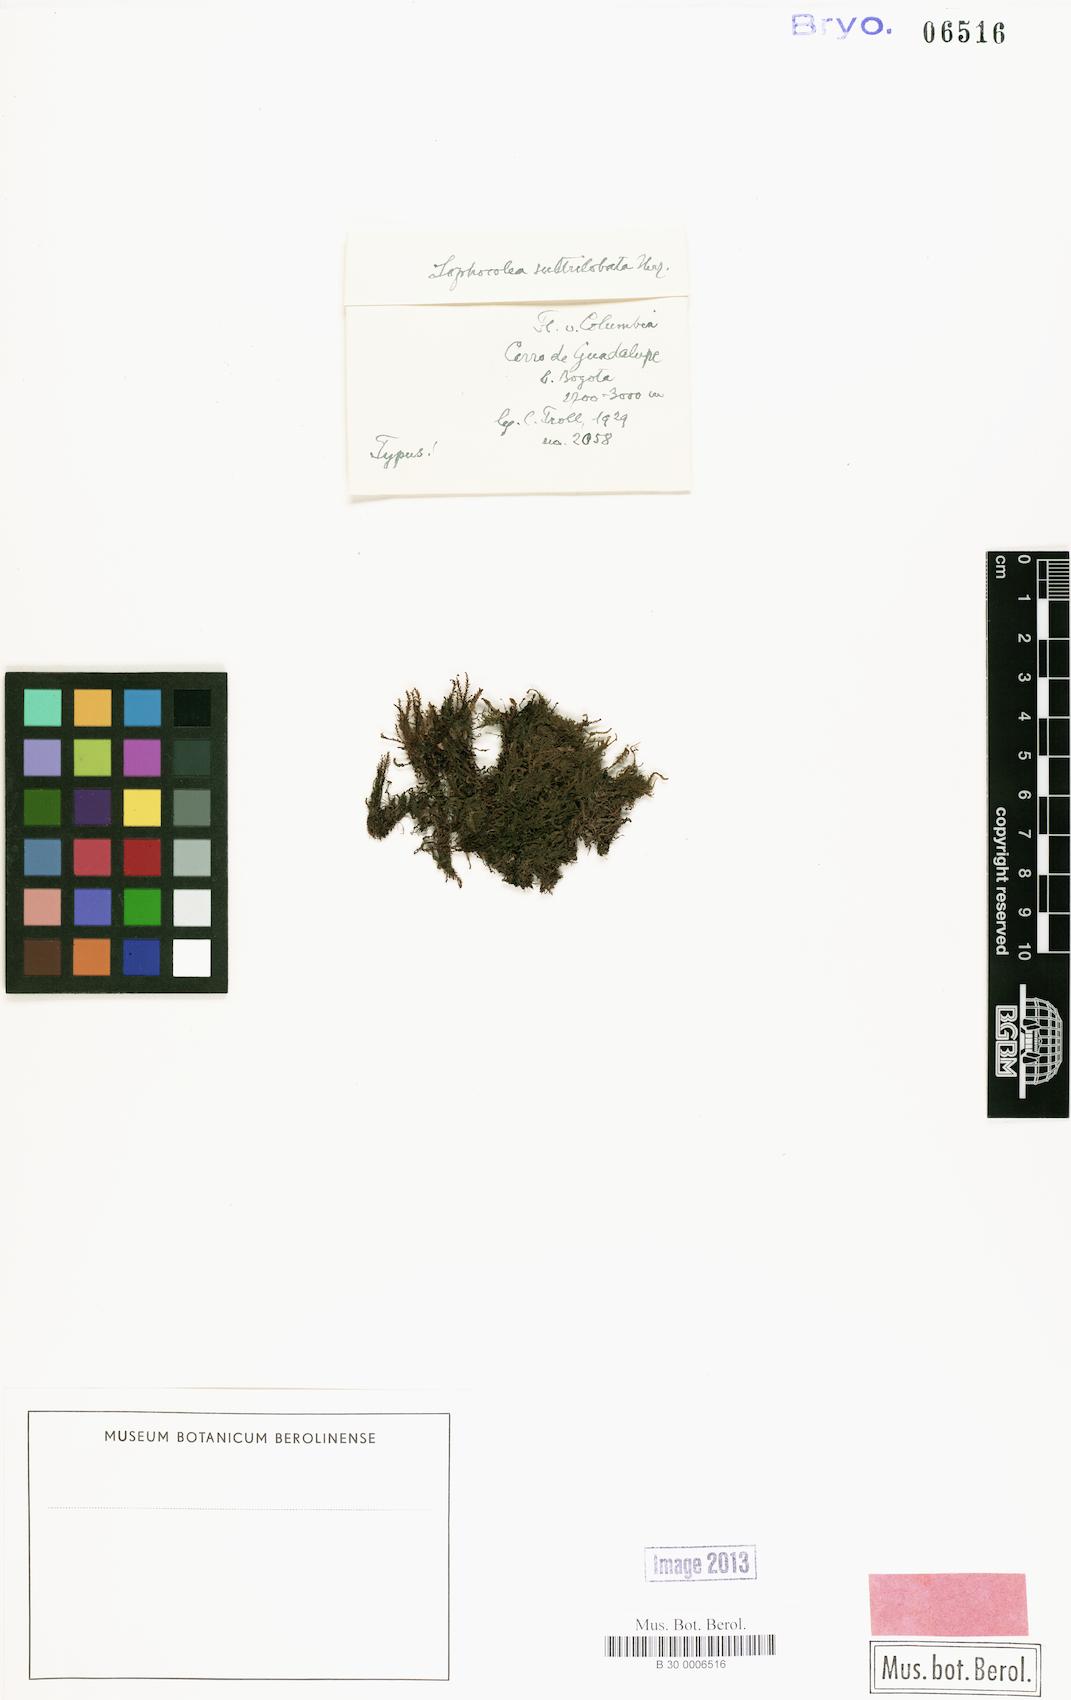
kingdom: Plantae
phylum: Marchantiophyta
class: Jungermanniopsida
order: Jungermanniales
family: Lophocoleaceae
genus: Lophocolea
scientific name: Lophocolea coadunata
